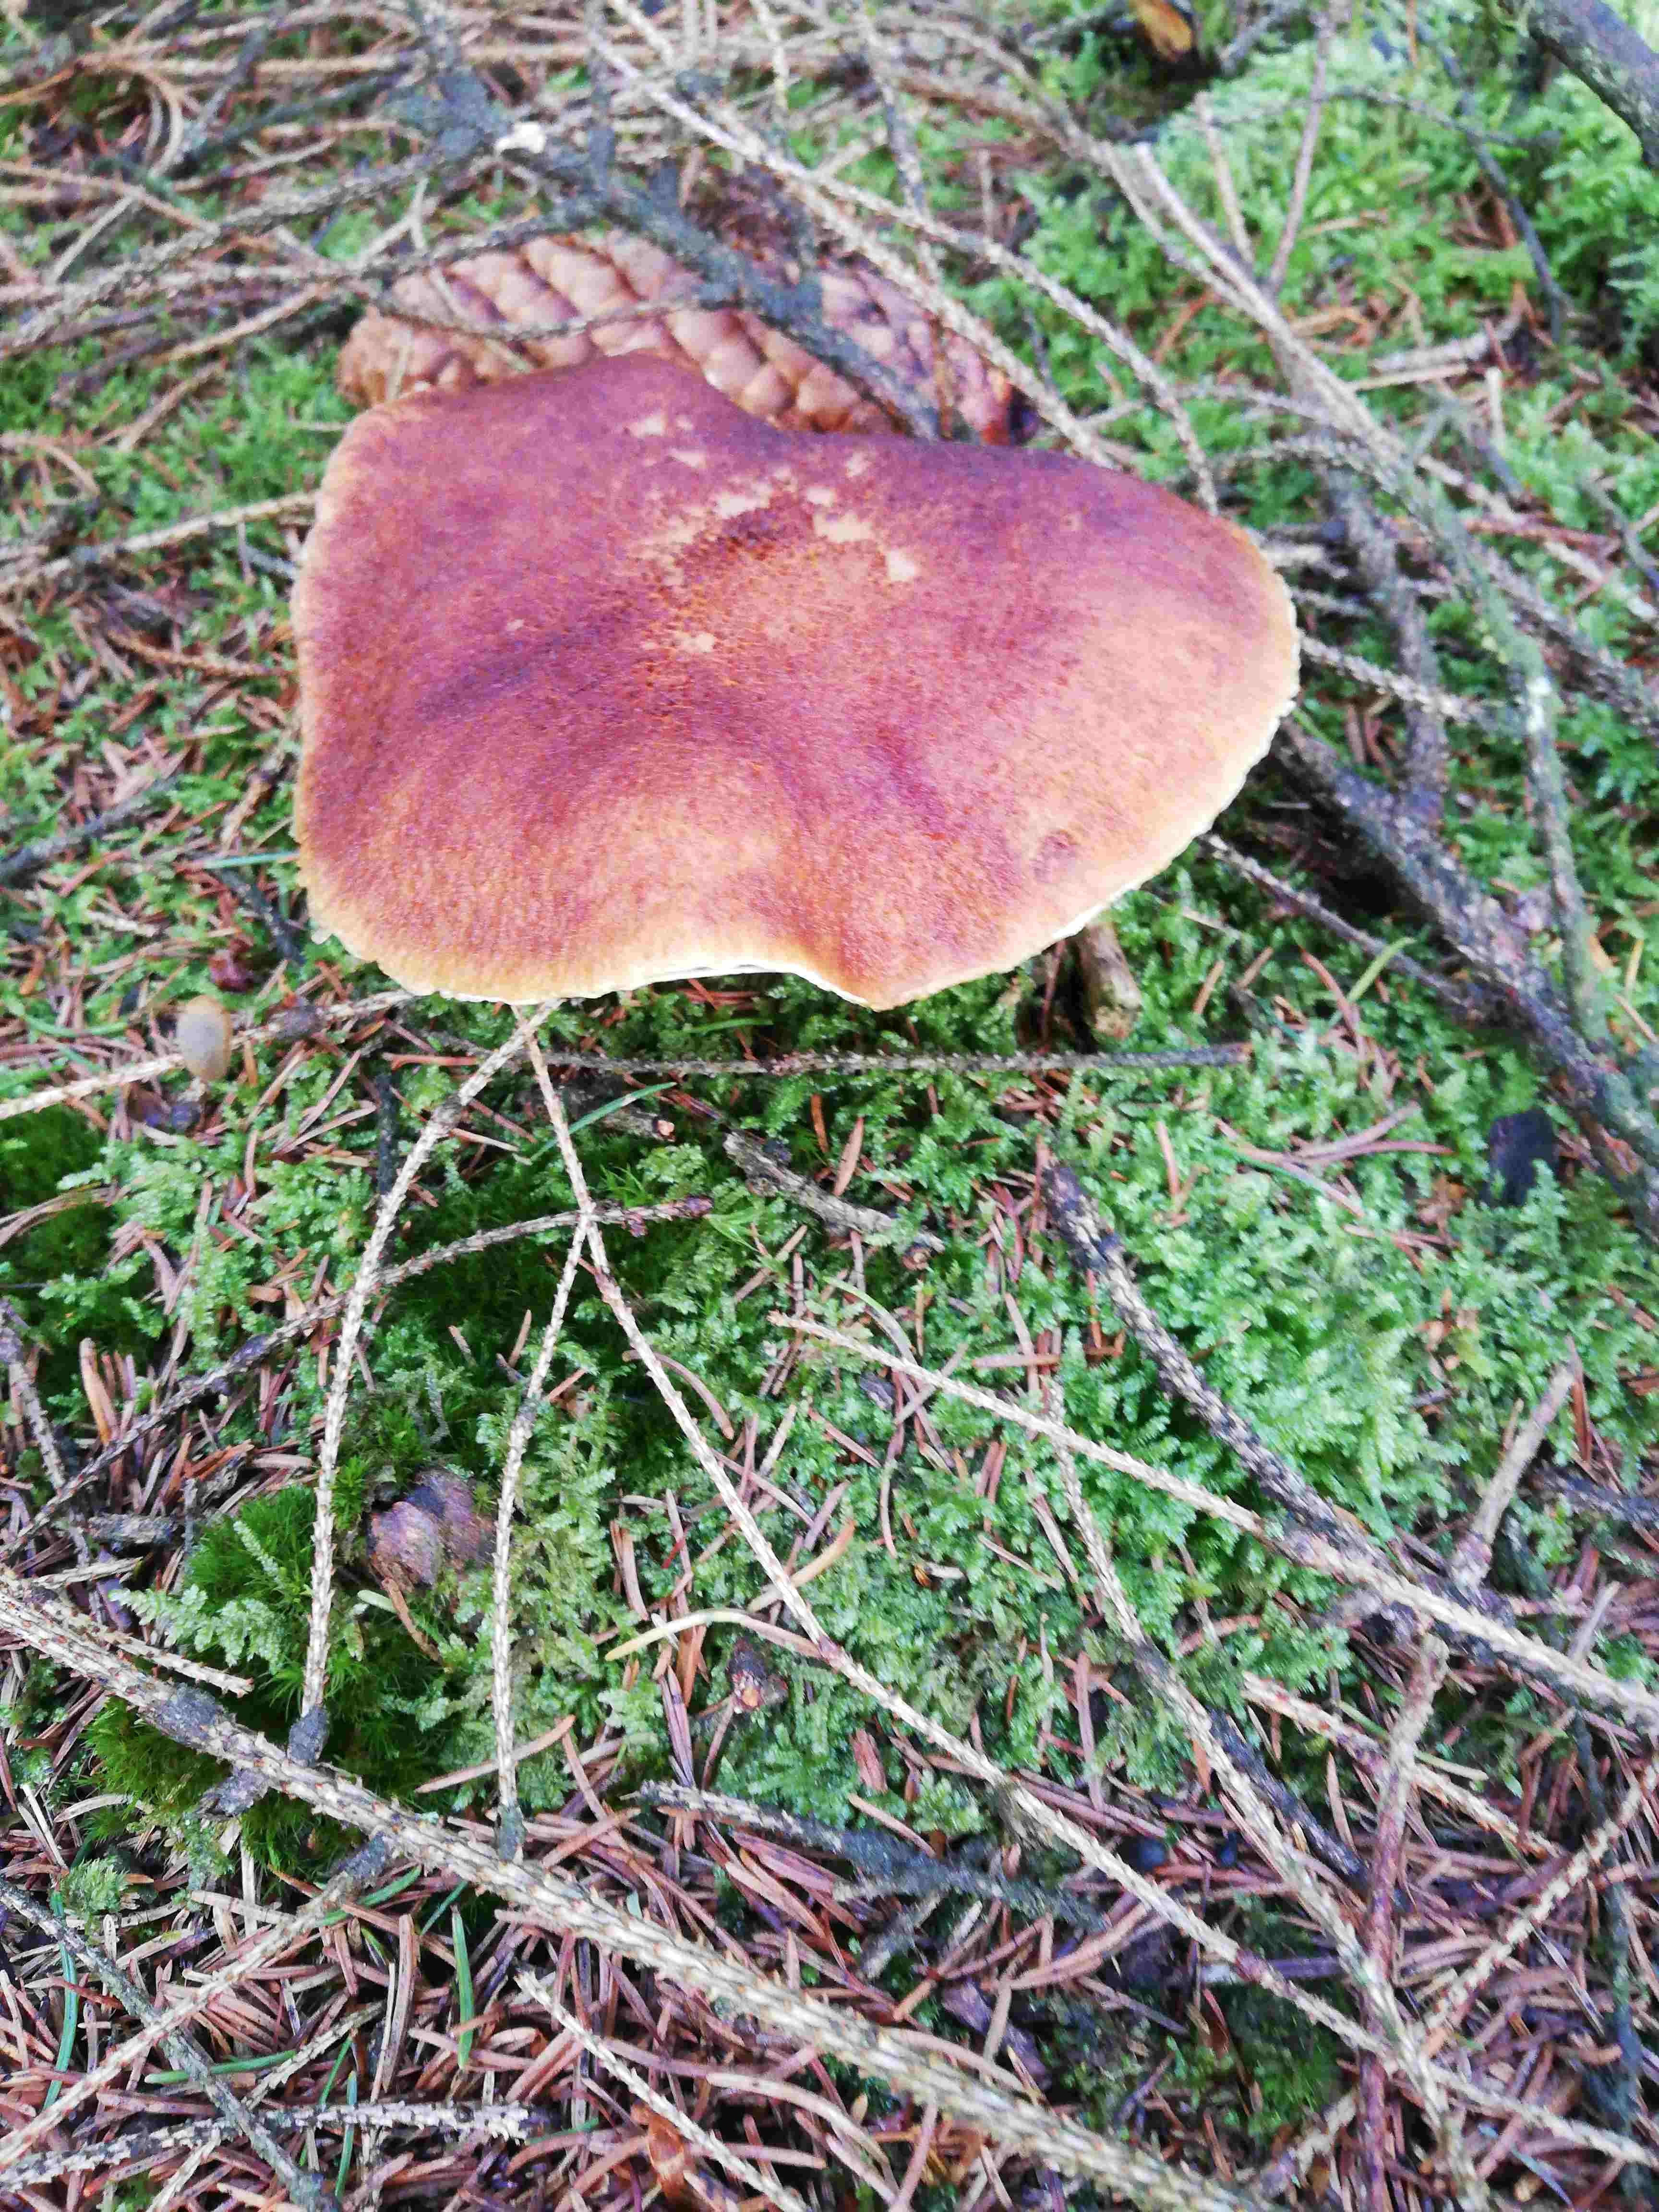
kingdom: Fungi
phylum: Basidiomycota
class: Agaricomycetes
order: Boletales
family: Suillaceae
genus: Suillus
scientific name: Suillus cavipes
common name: hulstokket slimrørhat
